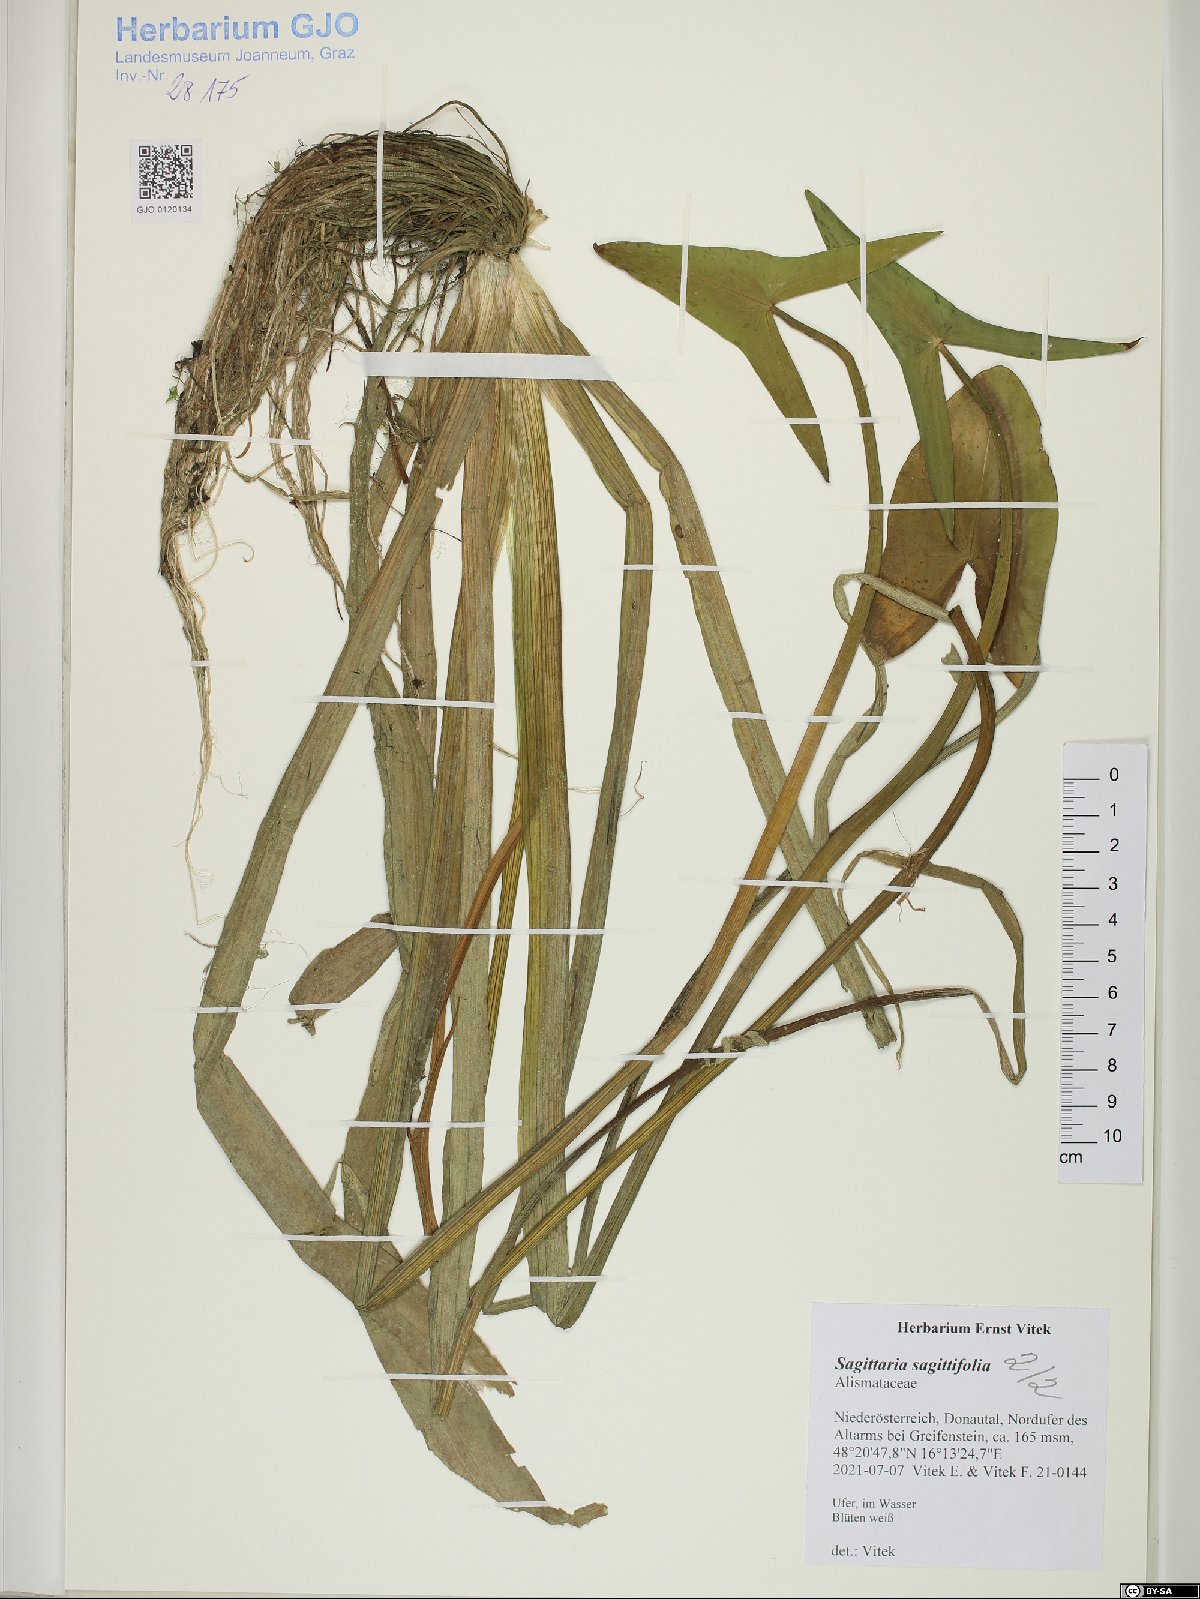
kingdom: Plantae
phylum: Tracheophyta
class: Liliopsida
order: Alismatales
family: Alismataceae
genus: Sagittaria
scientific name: Sagittaria sagittifolia
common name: Arrowhead
